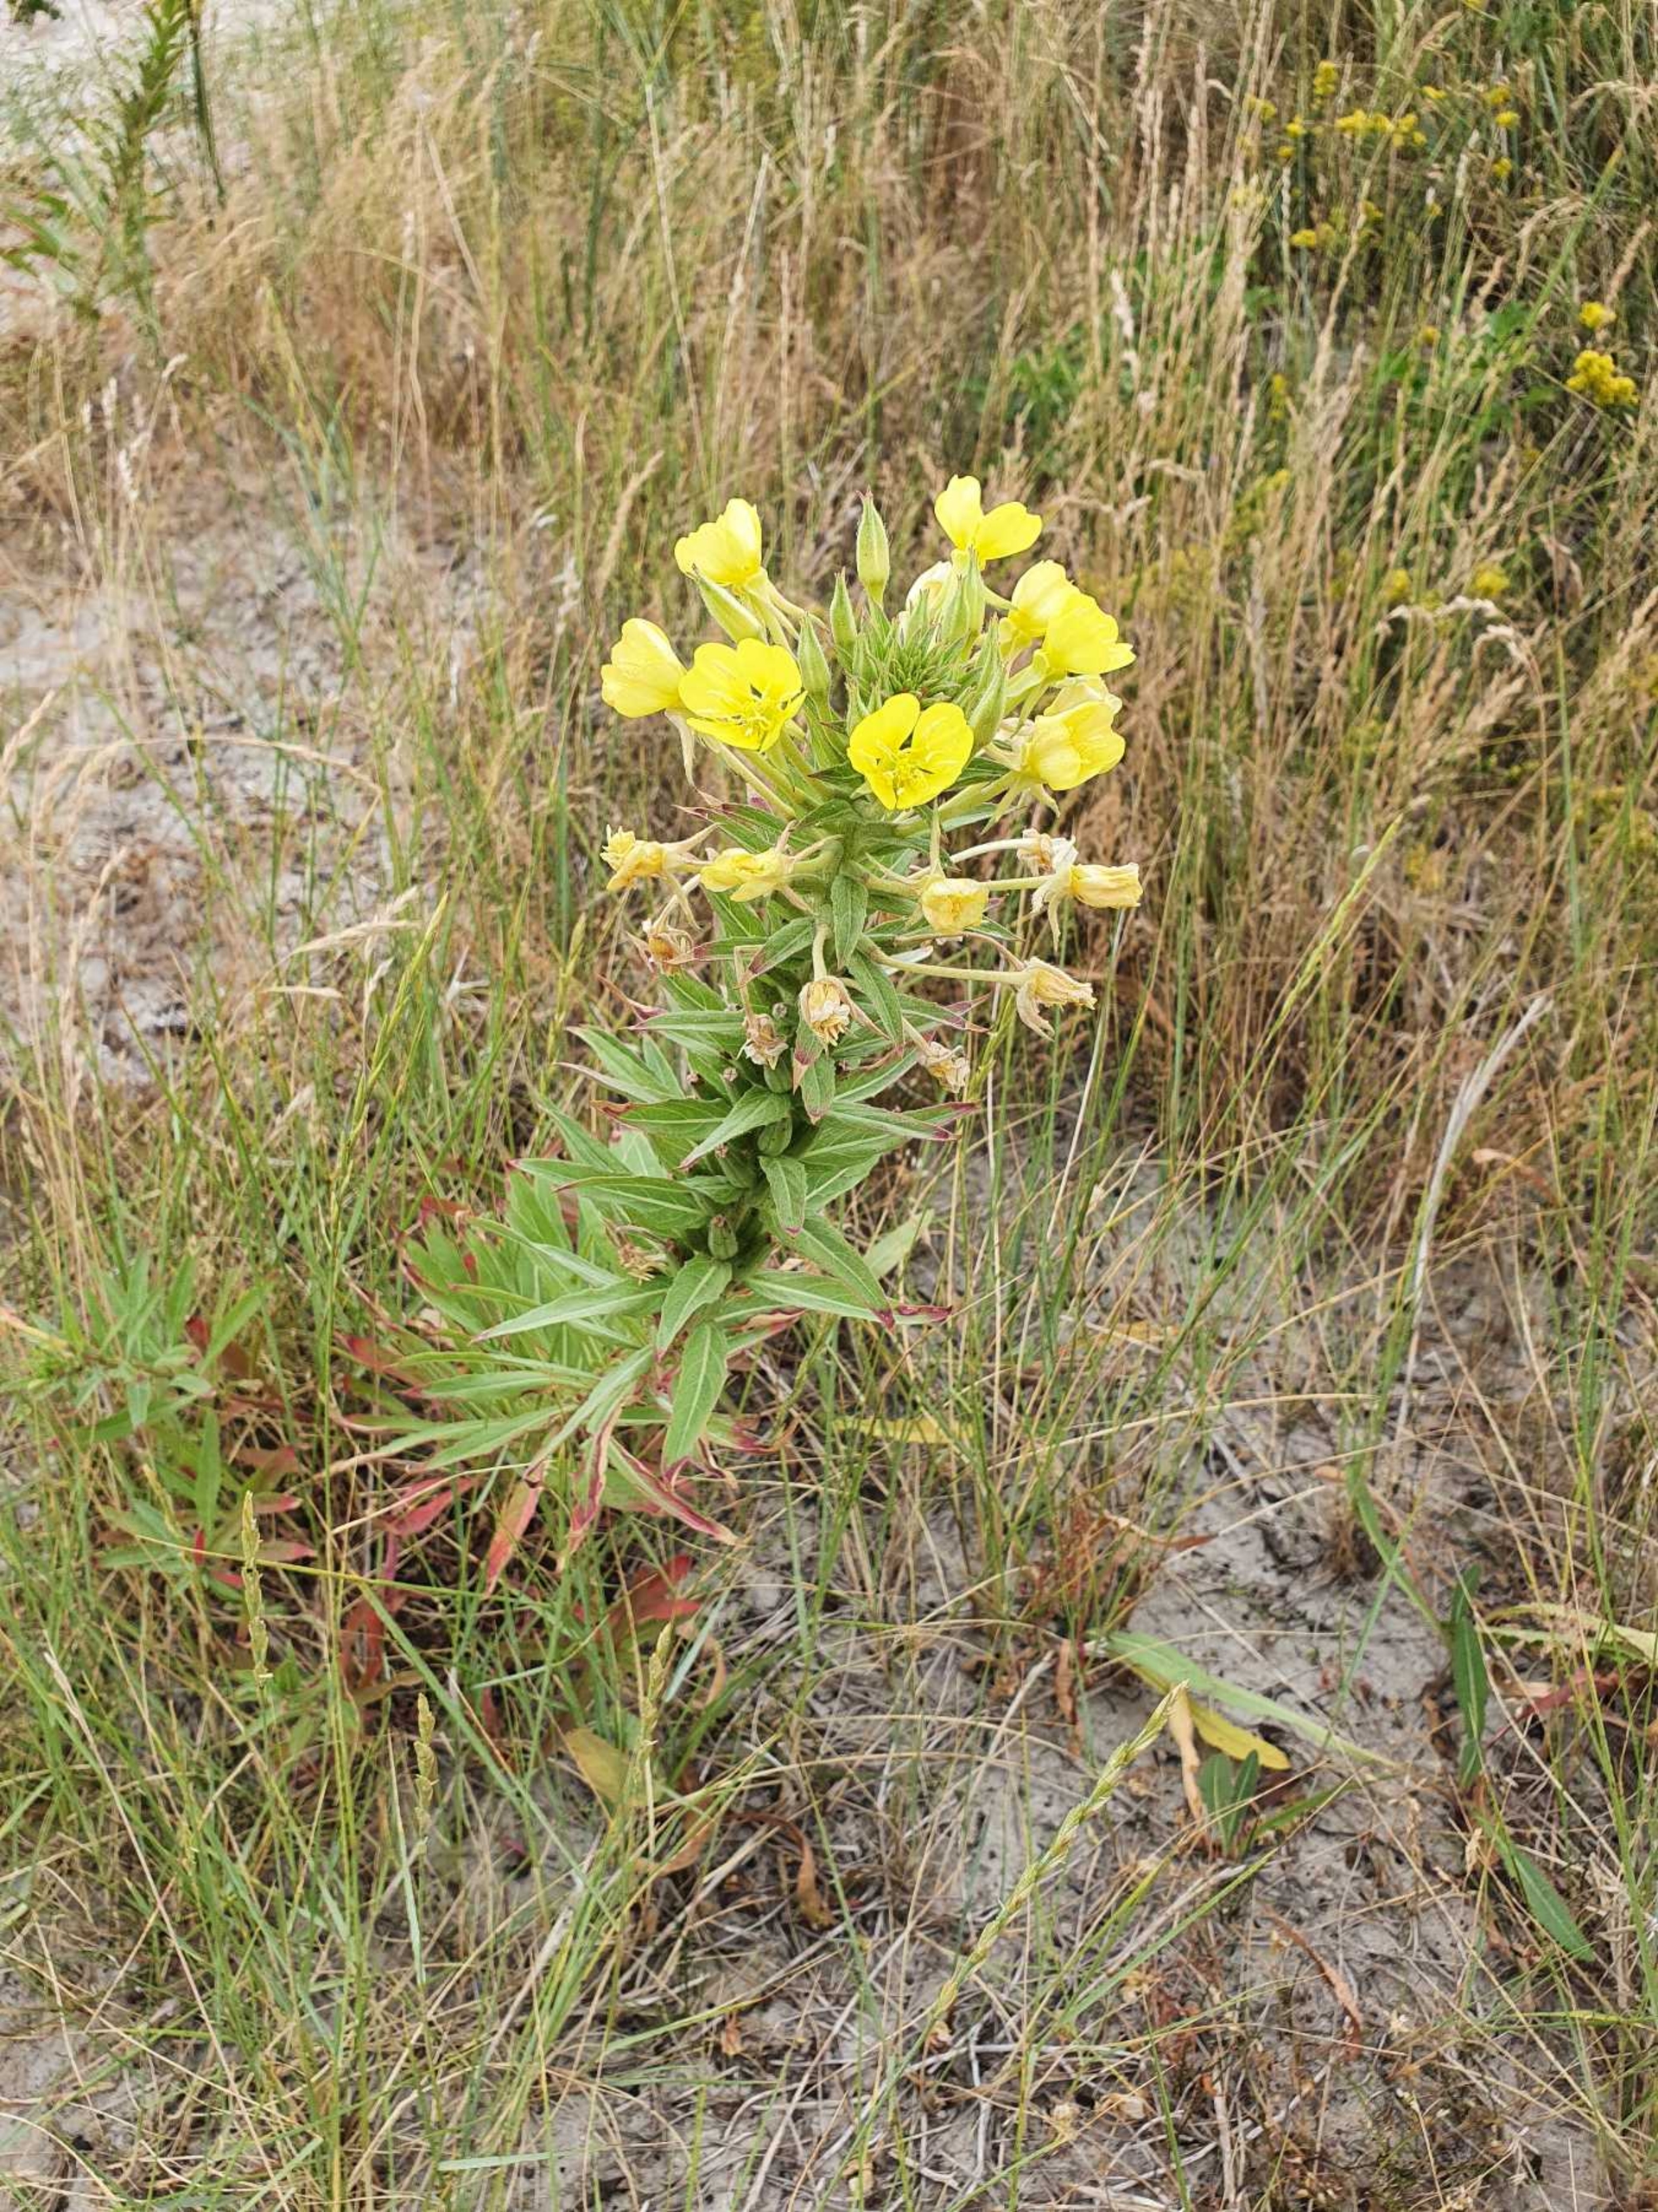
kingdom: Plantae
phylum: Tracheophyta
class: Magnoliopsida
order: Myrtales
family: Onagraceae
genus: Oenothera
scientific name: Oenothera ammophila
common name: Klit-natlys
